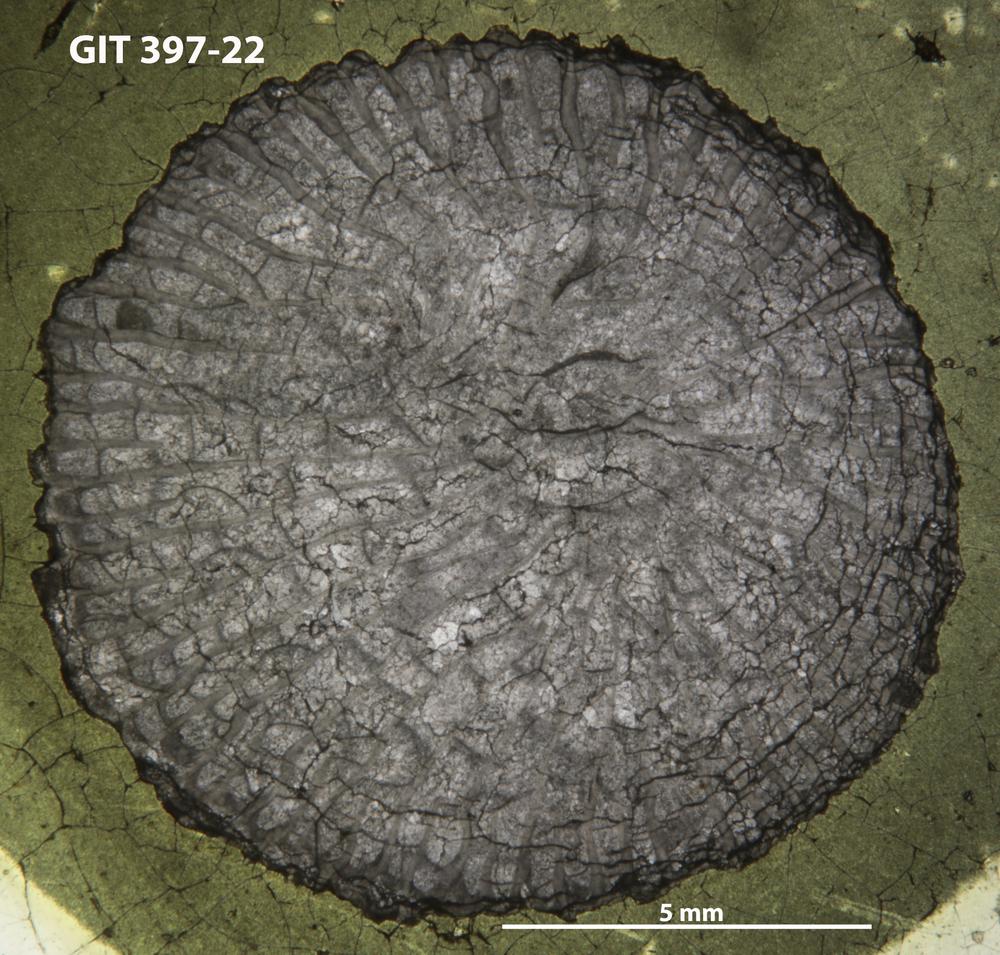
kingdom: Animalia
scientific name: Animalia
